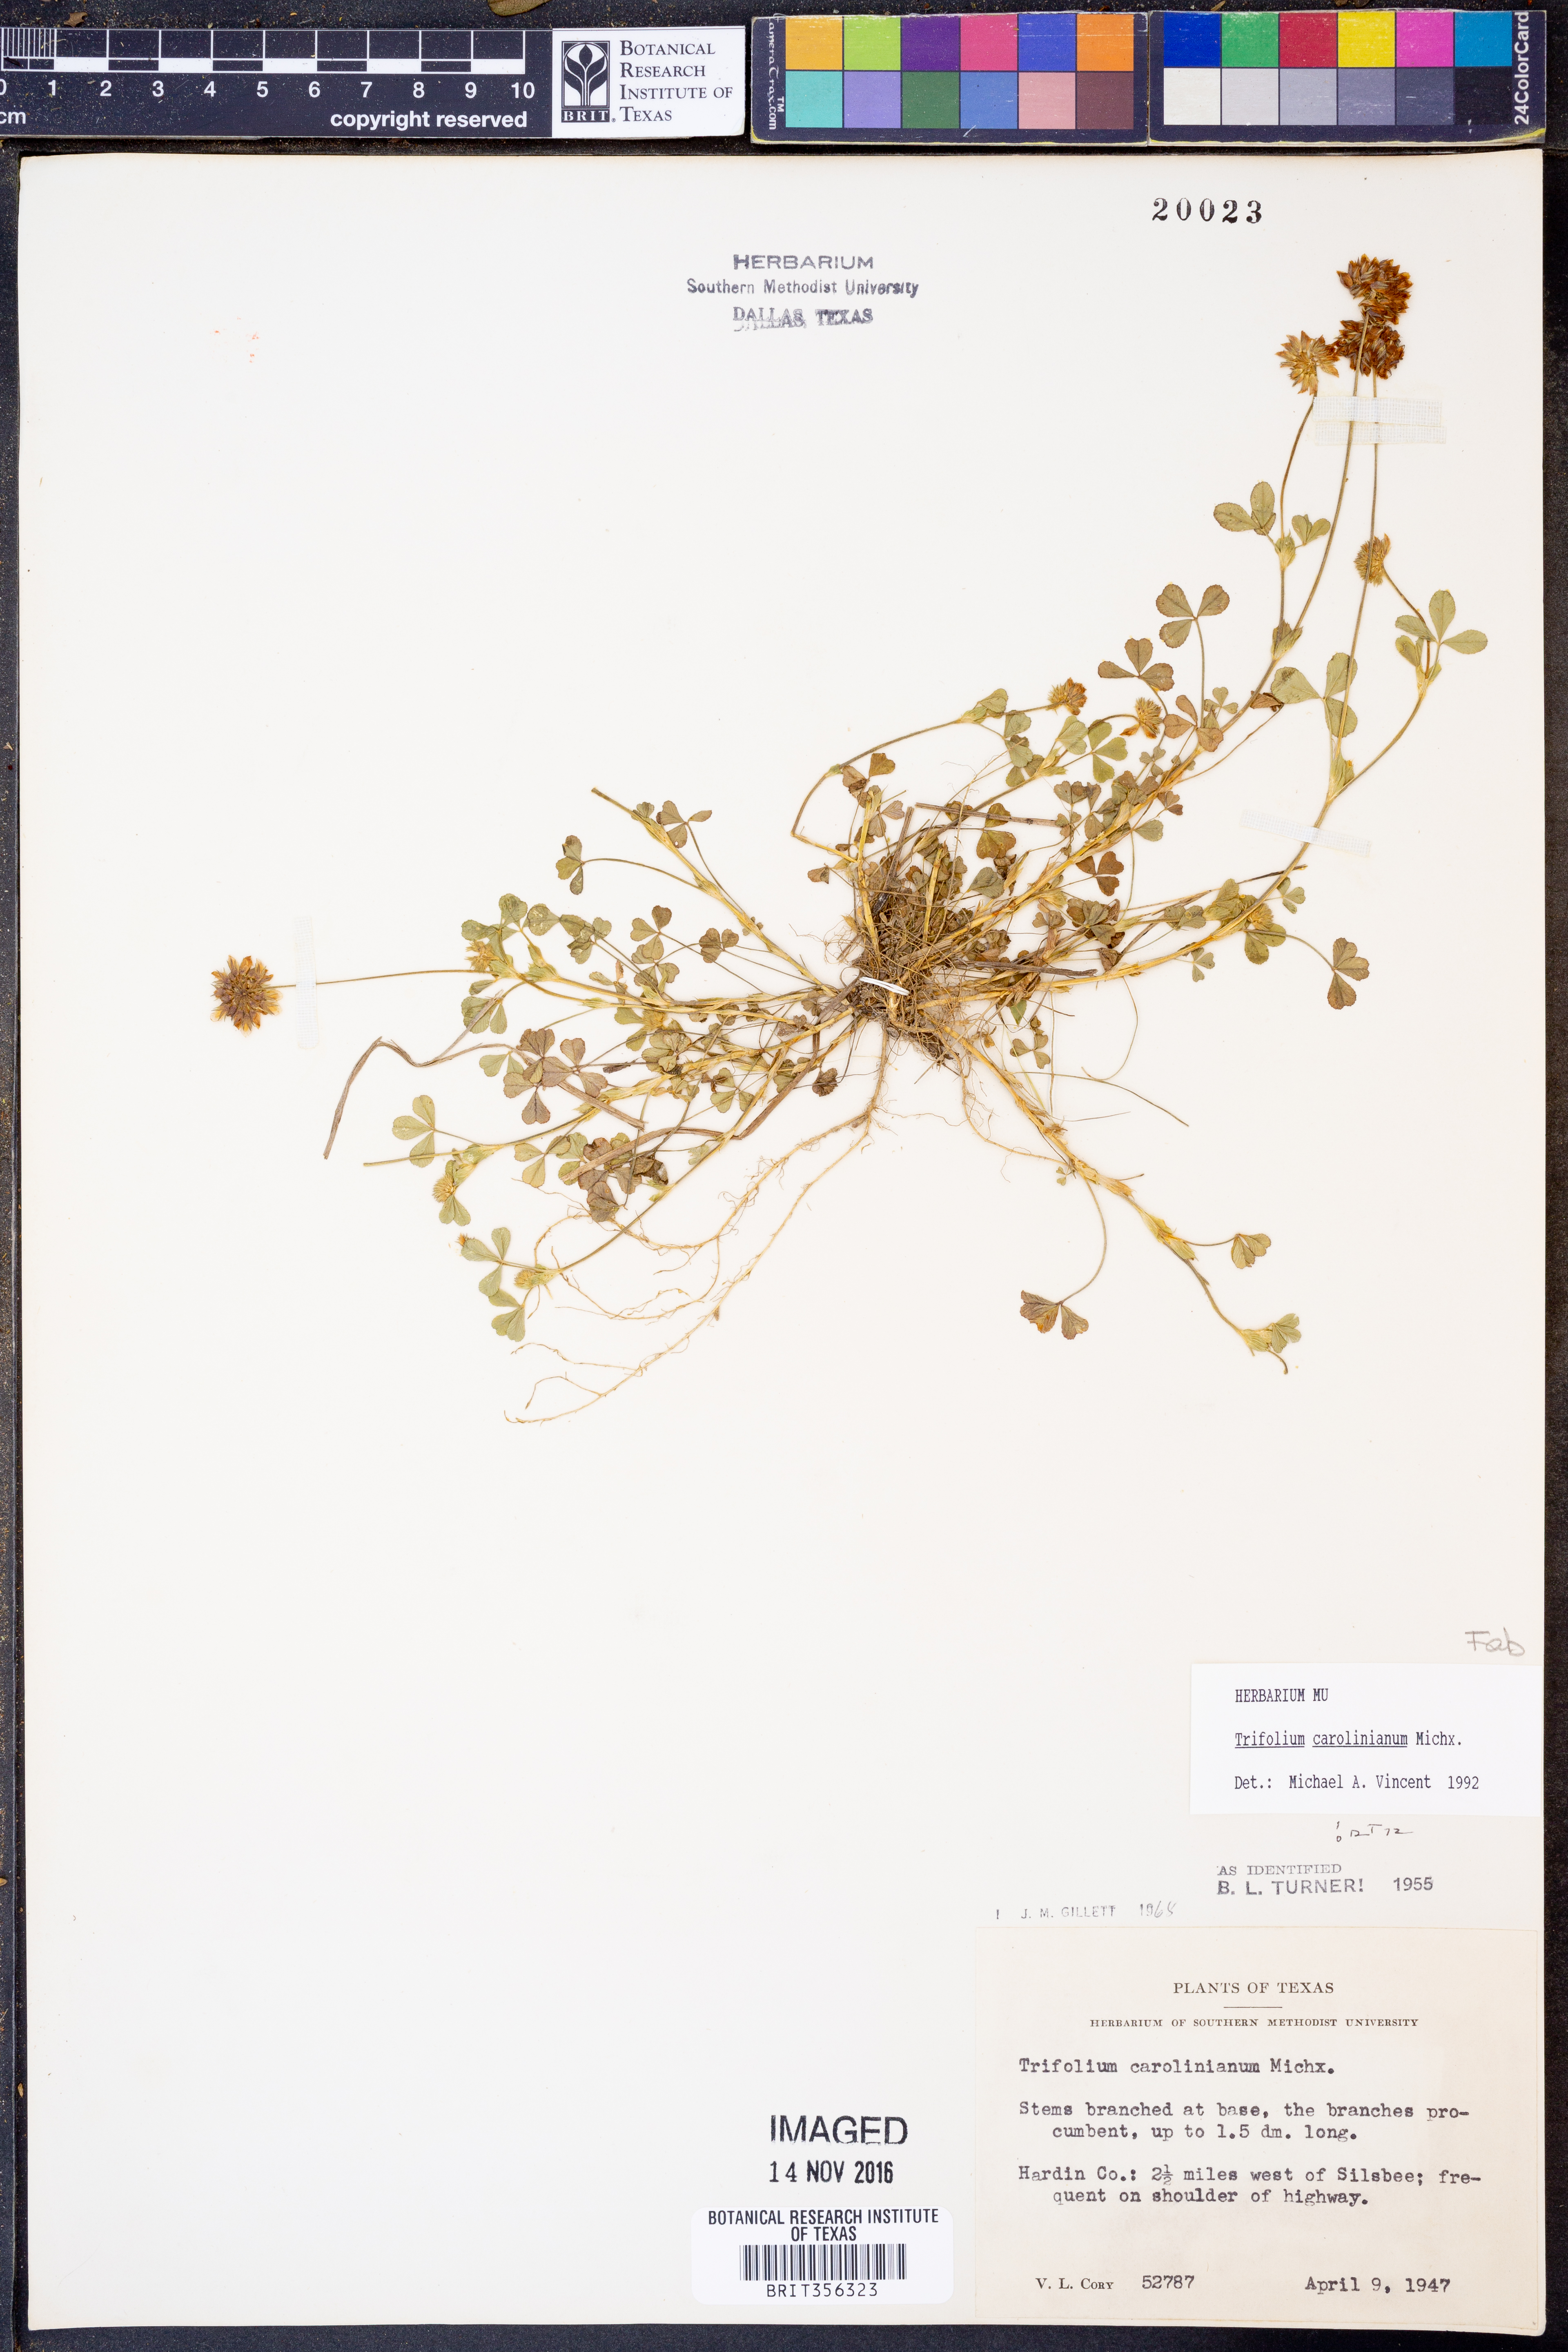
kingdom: Plantae
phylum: Tracheophyta
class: Magnoliopsida
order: Fabales
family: Fabaceae
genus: Trifolium
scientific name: Trifolium carolinianum
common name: Wild white clover
